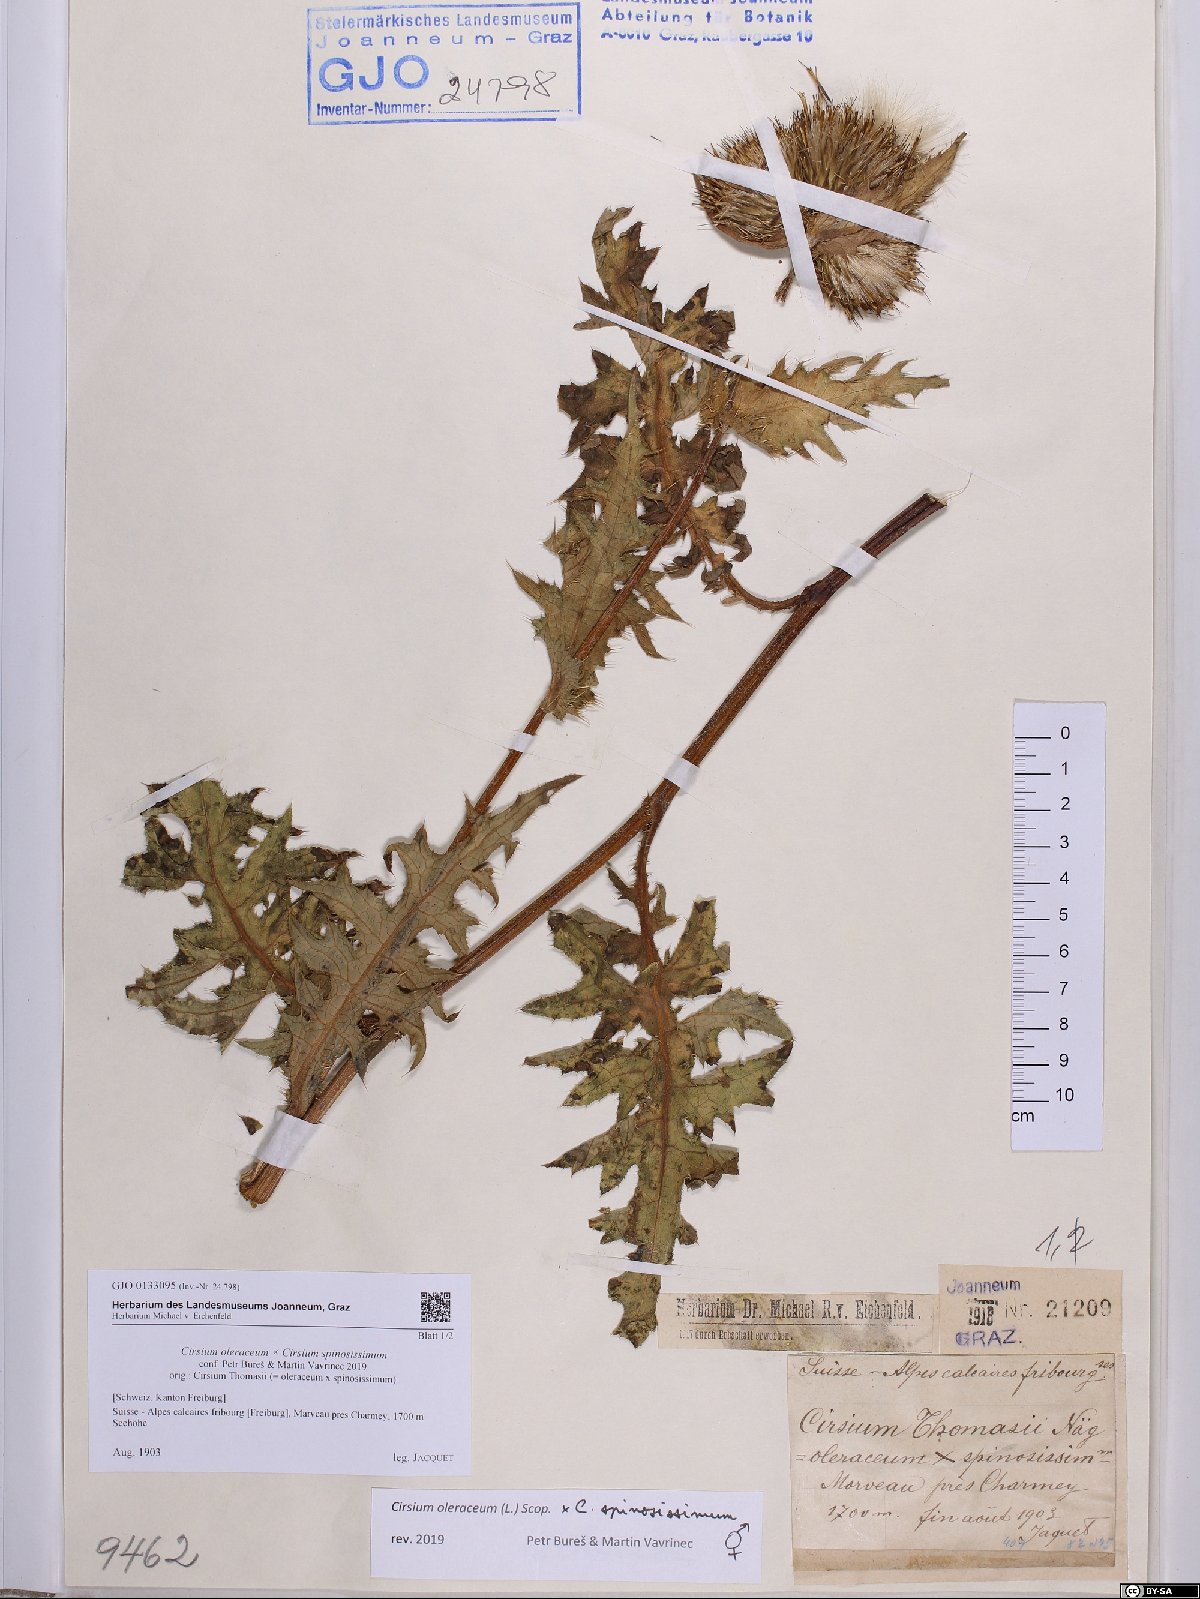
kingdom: Plantae
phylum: Tracheophyta
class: Magnoliopsida
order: Asterales
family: Asteraceae
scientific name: Asteraceae
